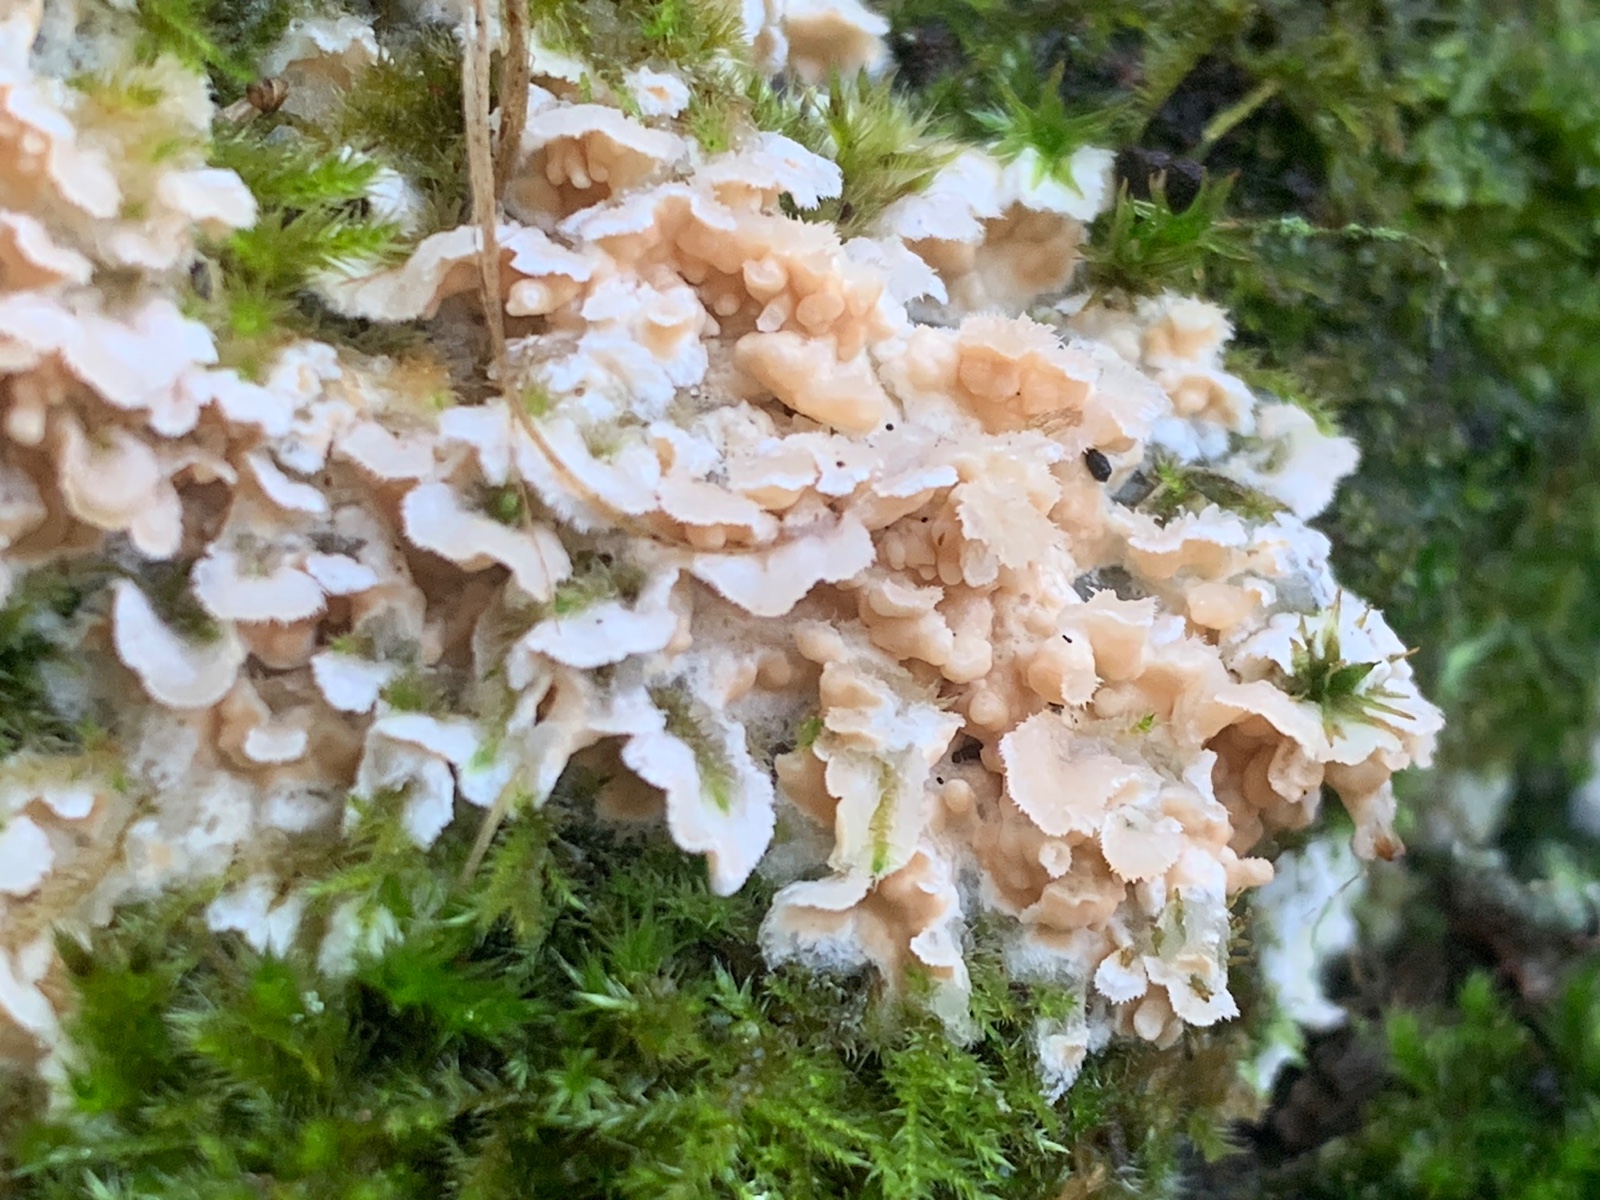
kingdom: Fungi
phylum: Basidiomycota
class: Agaricomycetes
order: Polyporales
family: Meruliaceae
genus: Phlebia
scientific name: Phlebia tremellosa
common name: bævrende åresvamp
